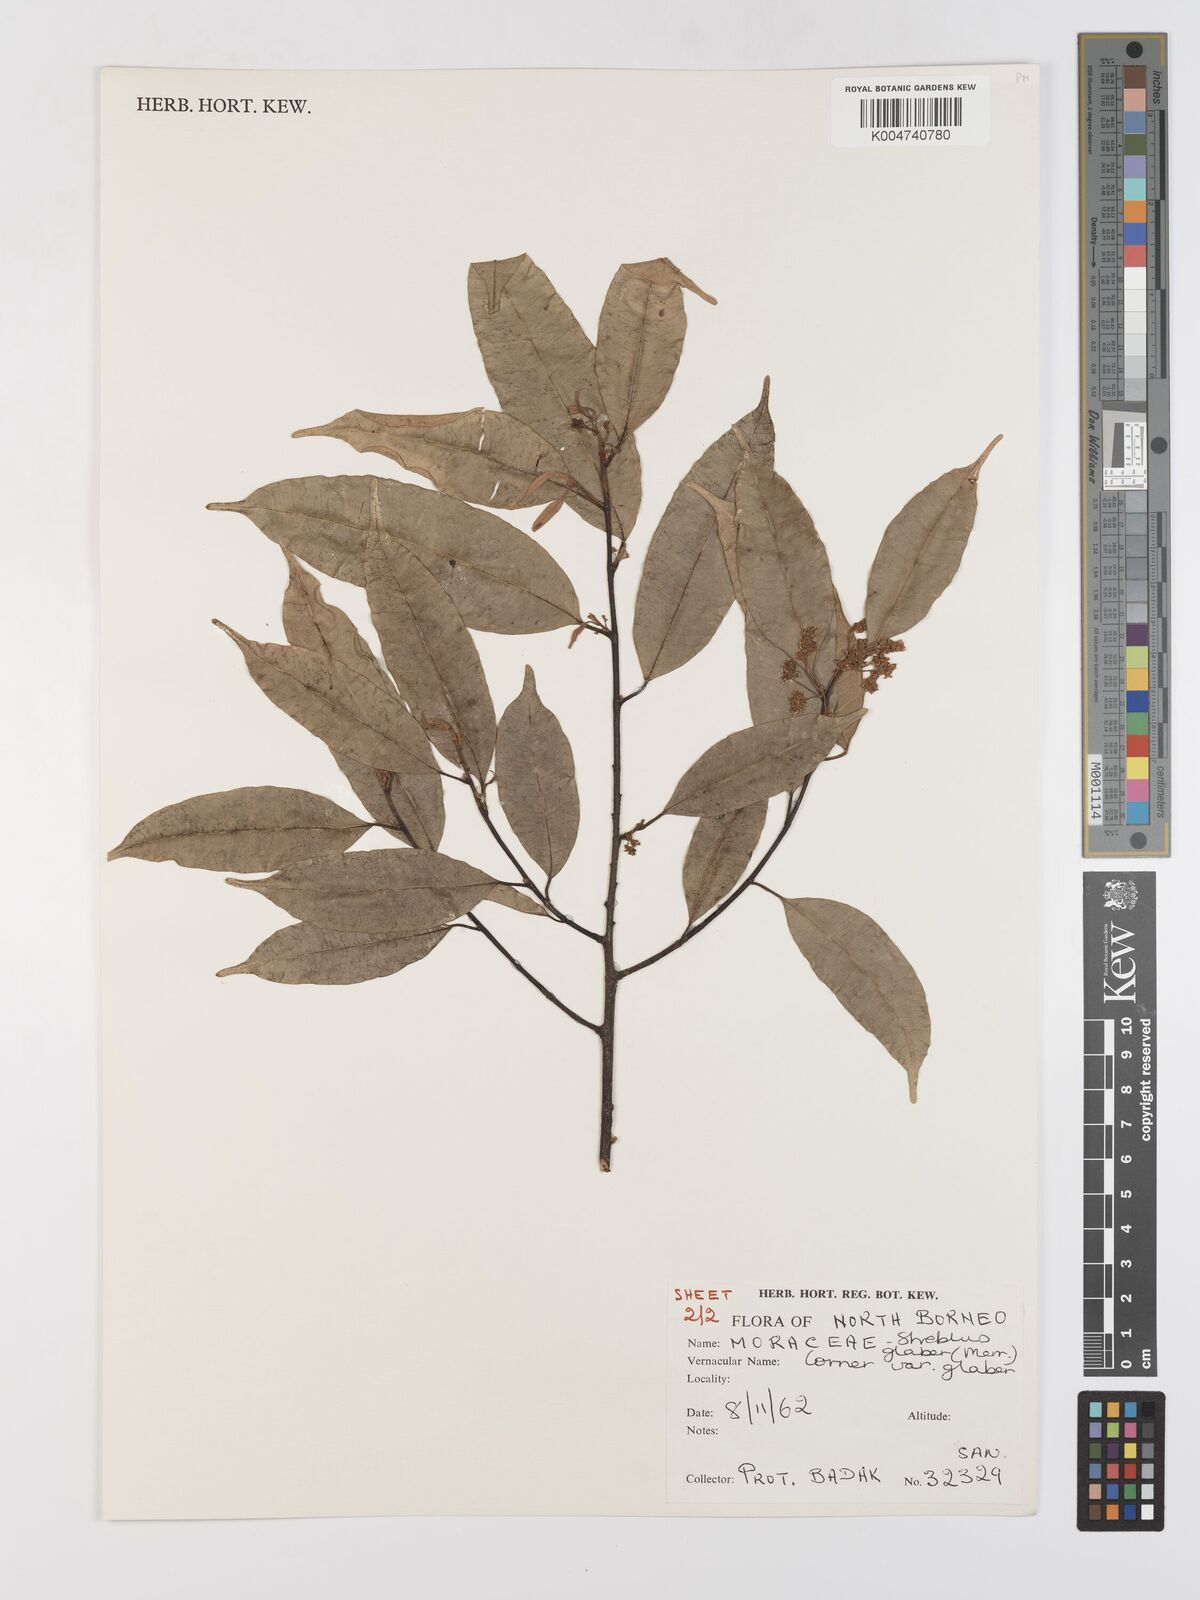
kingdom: Plantae
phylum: Tracheophyta
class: Magnoliopsida
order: Rosales
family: Moraceae
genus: Paratrophis
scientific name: Paratrophis glabra
